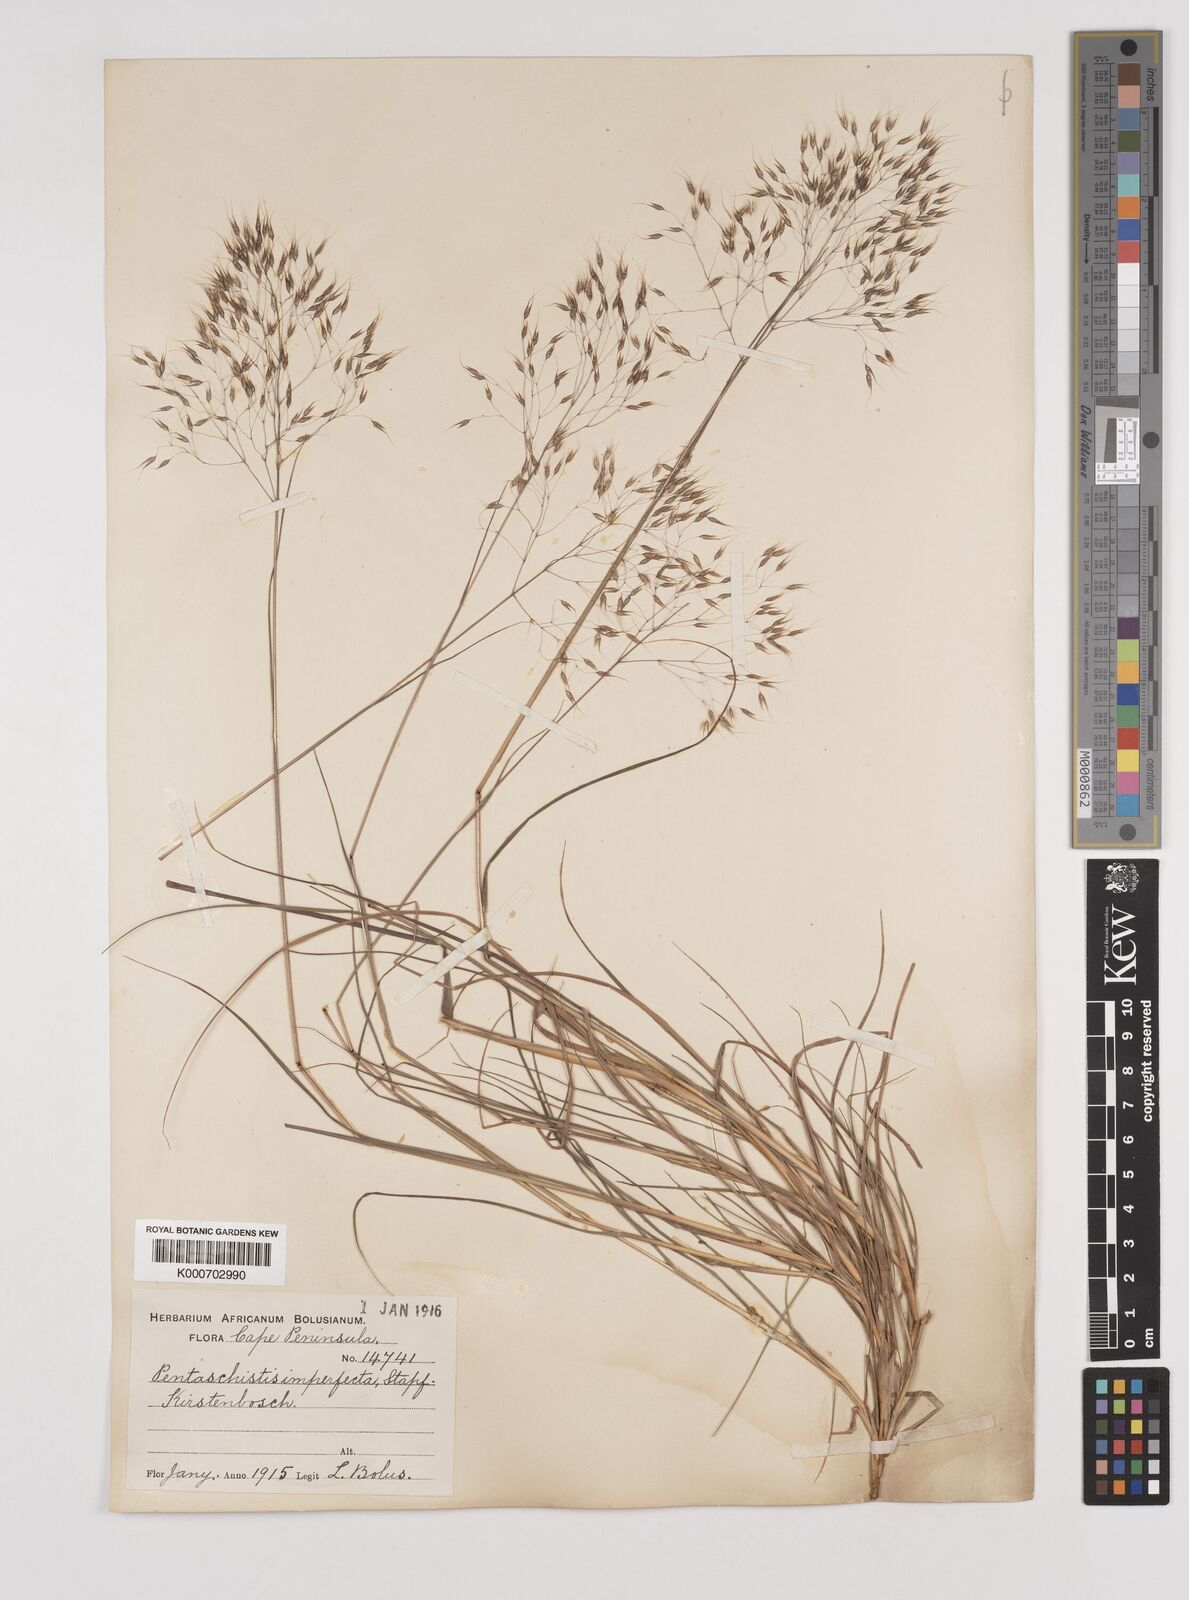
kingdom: Plantae
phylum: Tracheophyta
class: Liliopsida
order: Poales
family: Poaceae
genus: Pentameris
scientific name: Pentameris pallida
